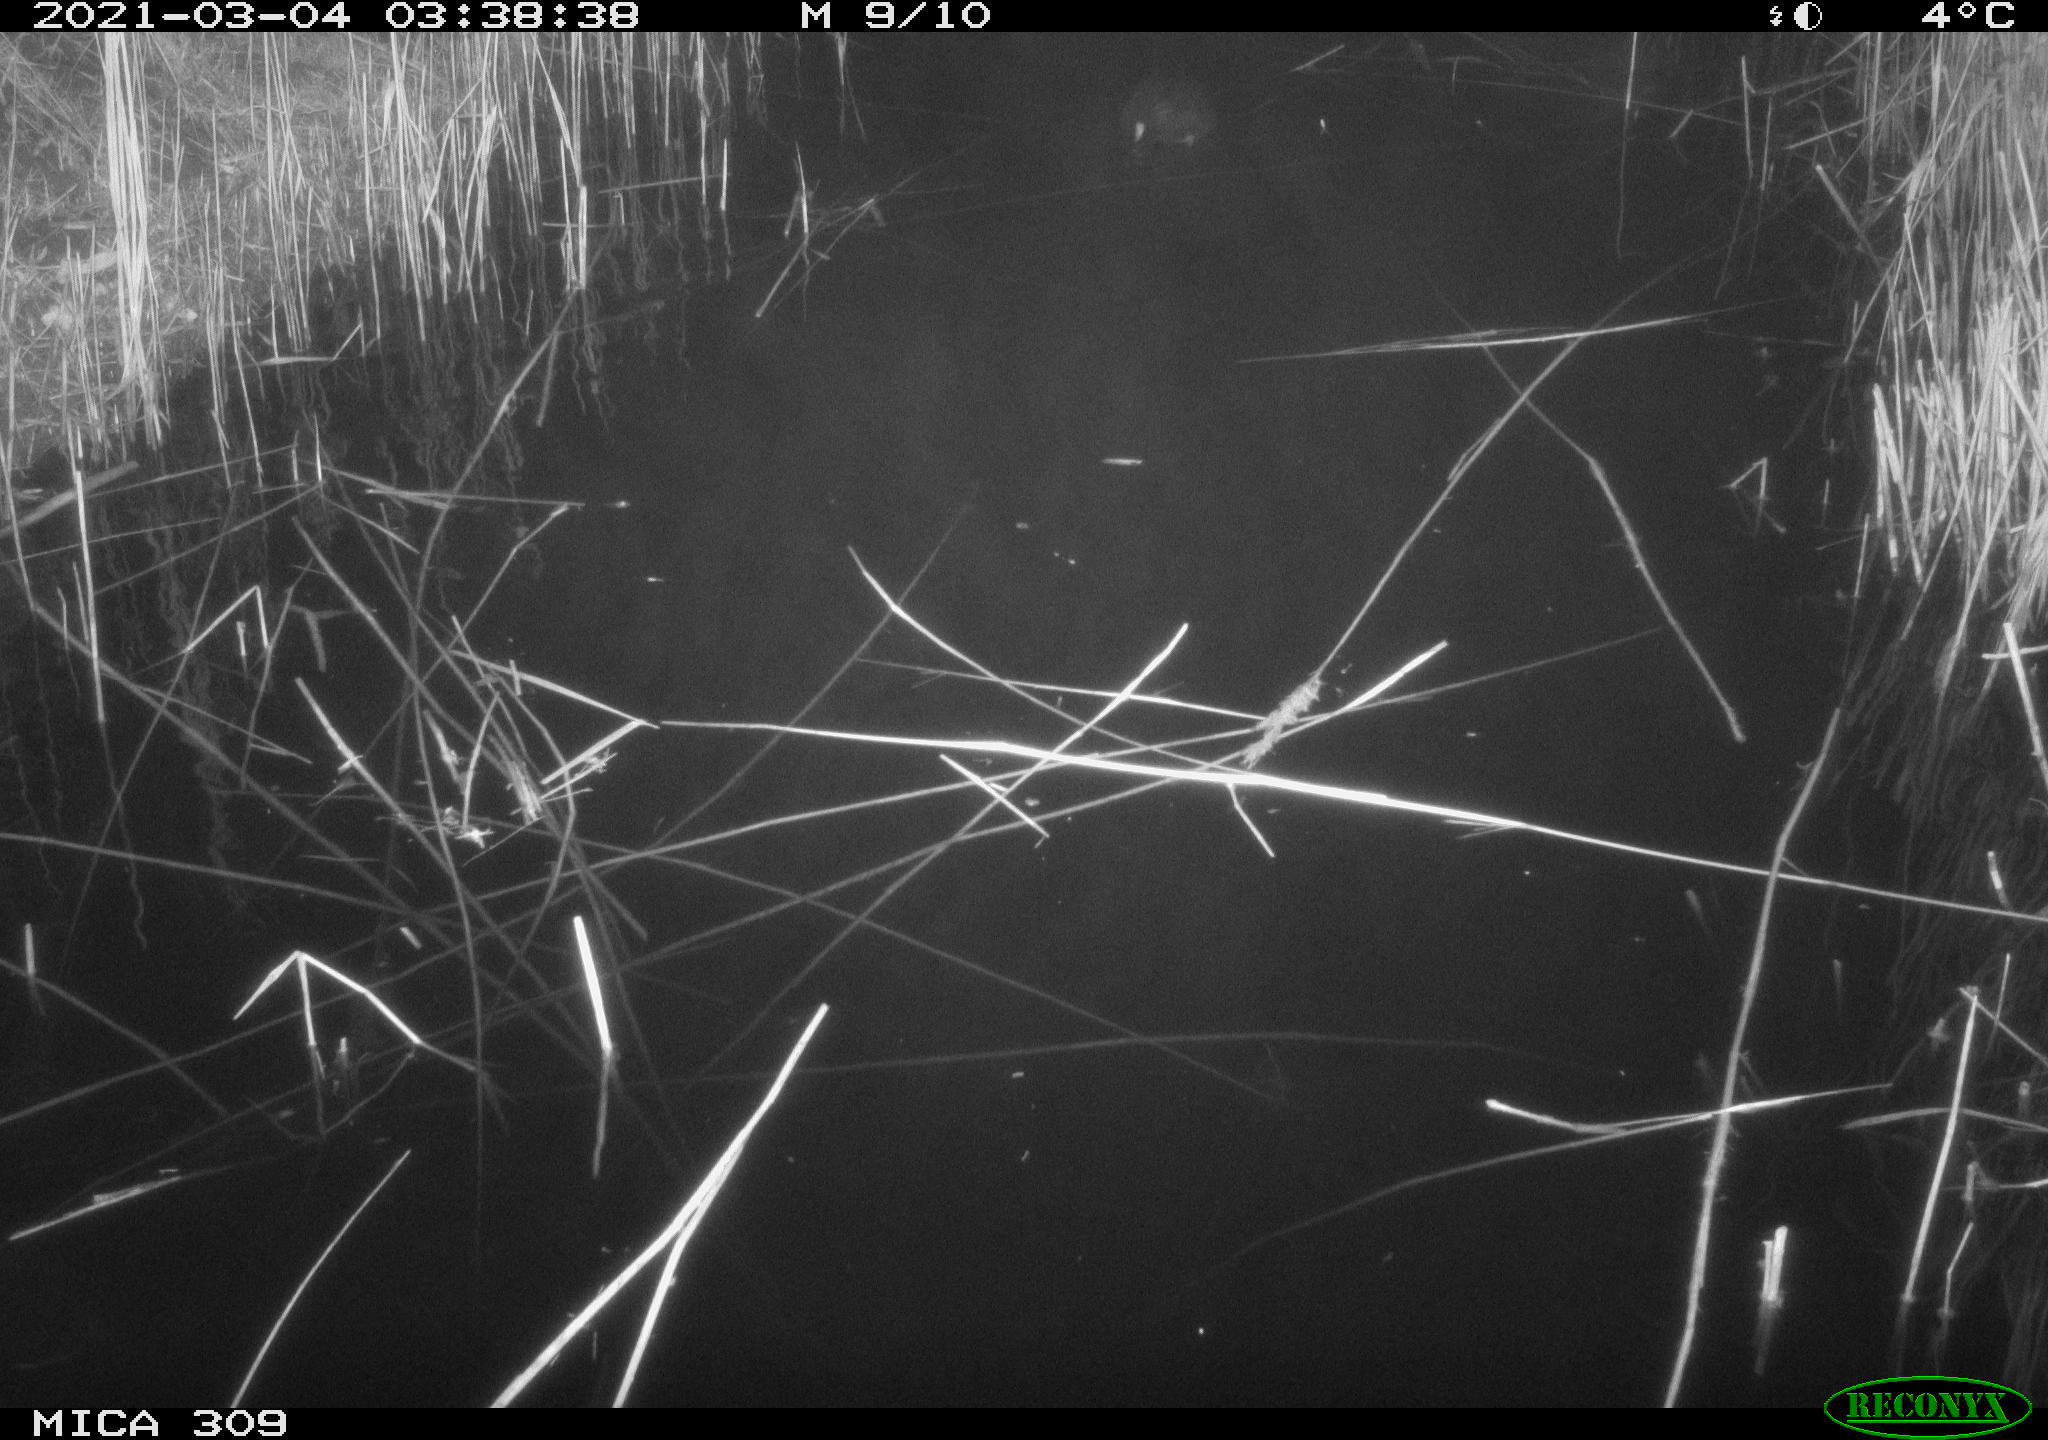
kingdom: Animalia
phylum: Chordata
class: Aves
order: Gruiformes
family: Rallidae
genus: Fulica
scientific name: Fulica atra
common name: Eurasian coot
